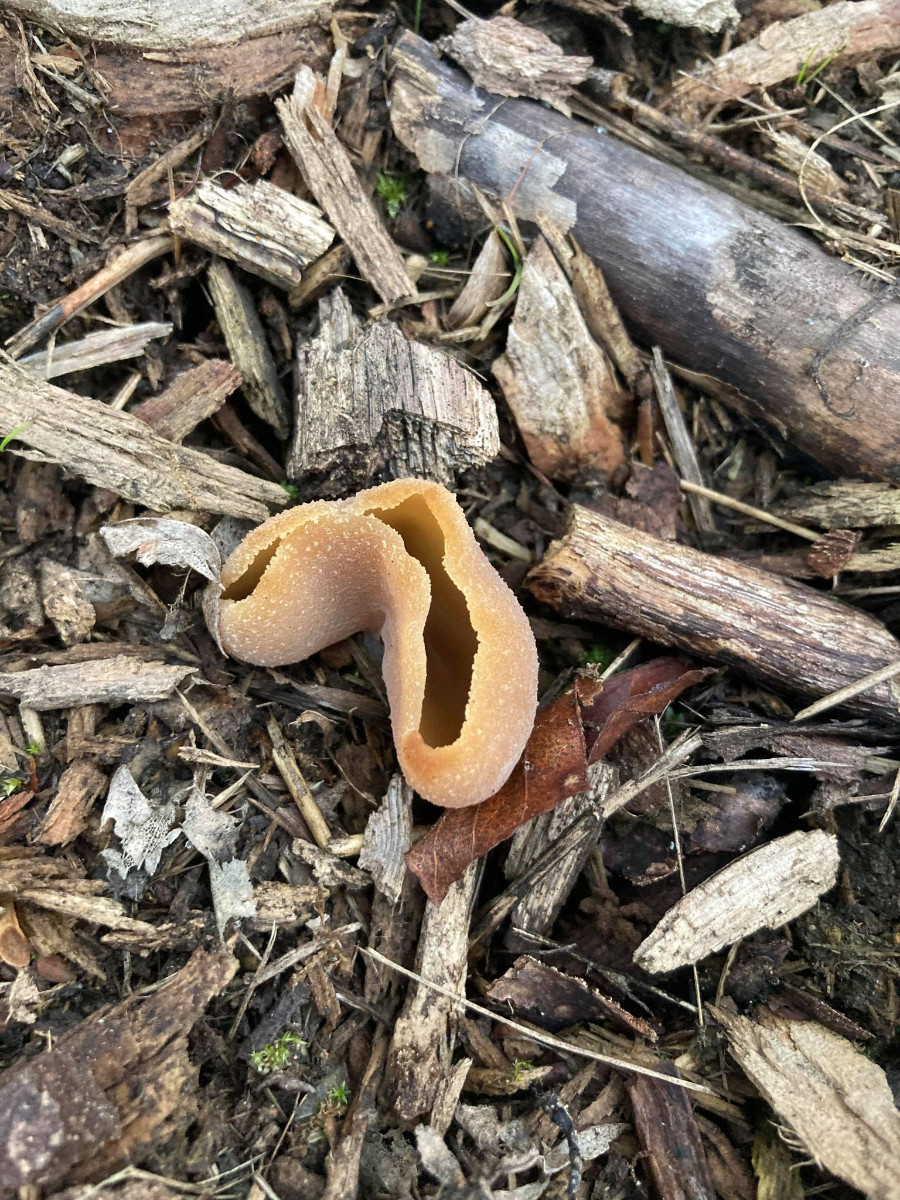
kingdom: Fungi
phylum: Ascomycota
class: Pezizomycetes
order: Pezizales
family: Pezizaceae
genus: Peziza
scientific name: Peziza
